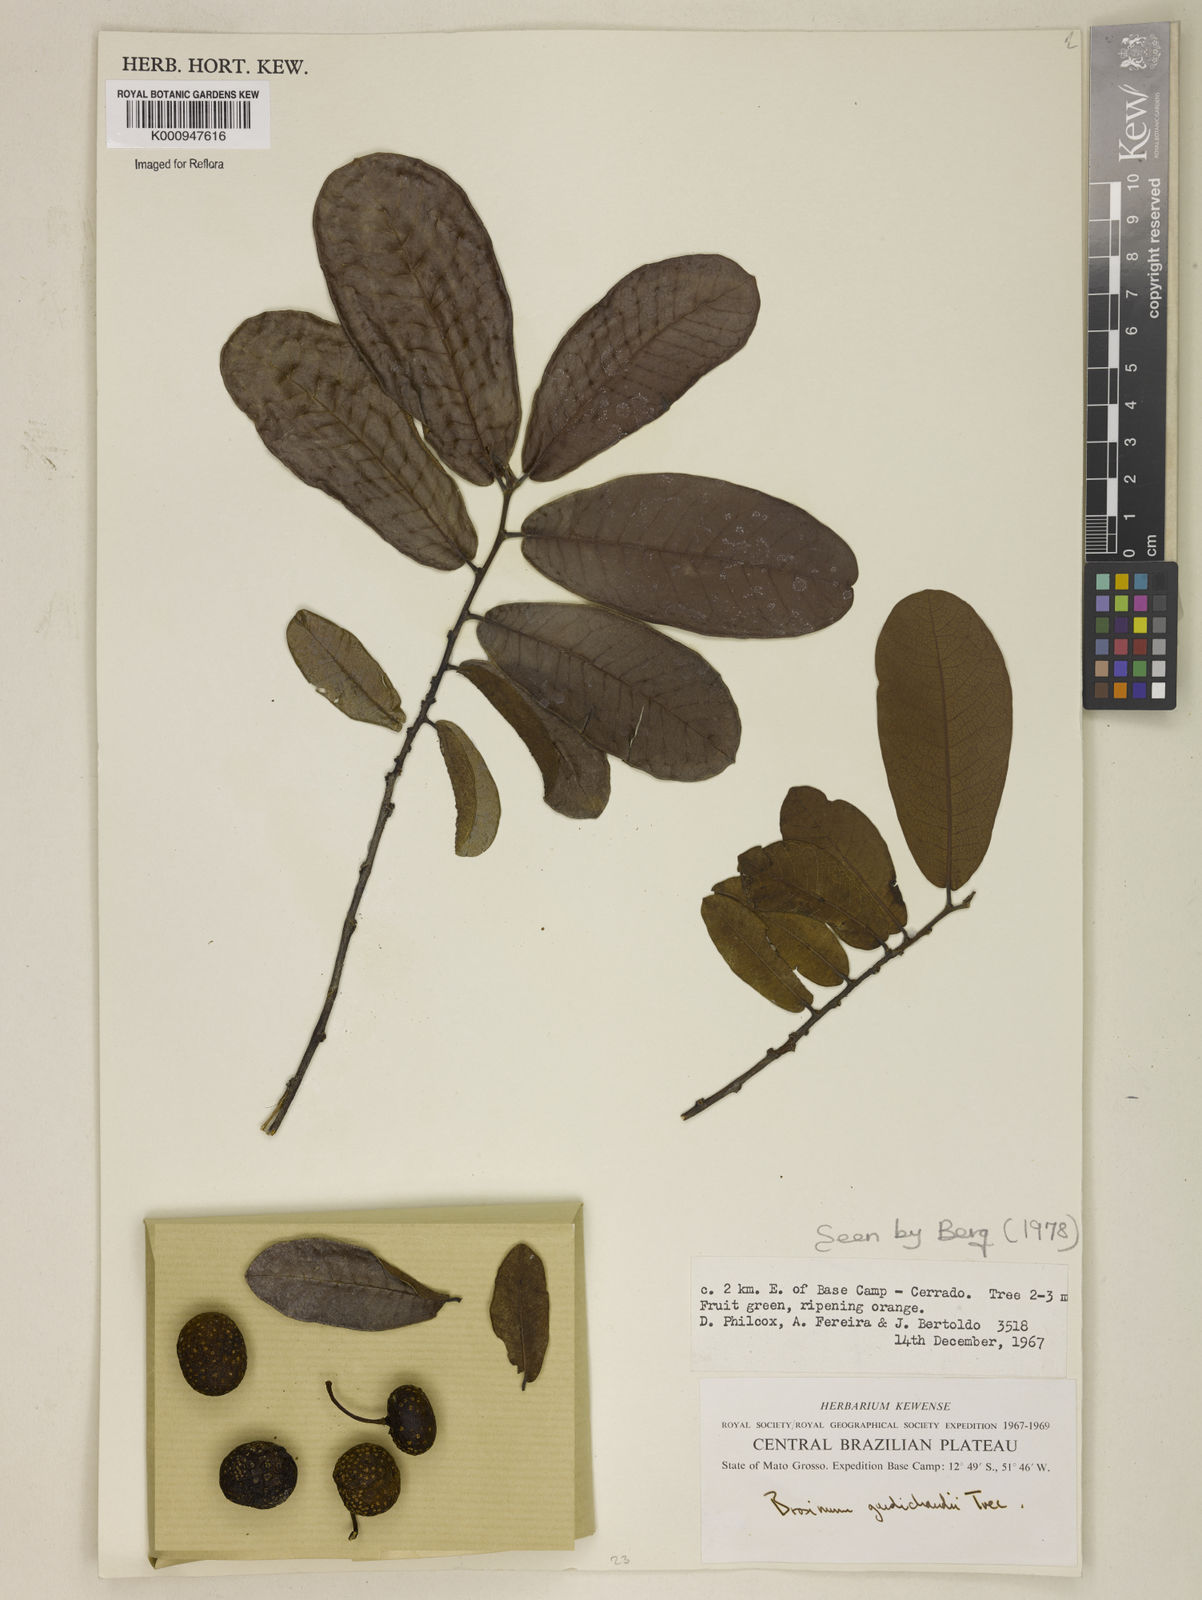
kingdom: Plantae
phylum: Tracheophyta
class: Magnoliopsida
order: Rosales
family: Moraceae
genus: Brosimum
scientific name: Brosimum
